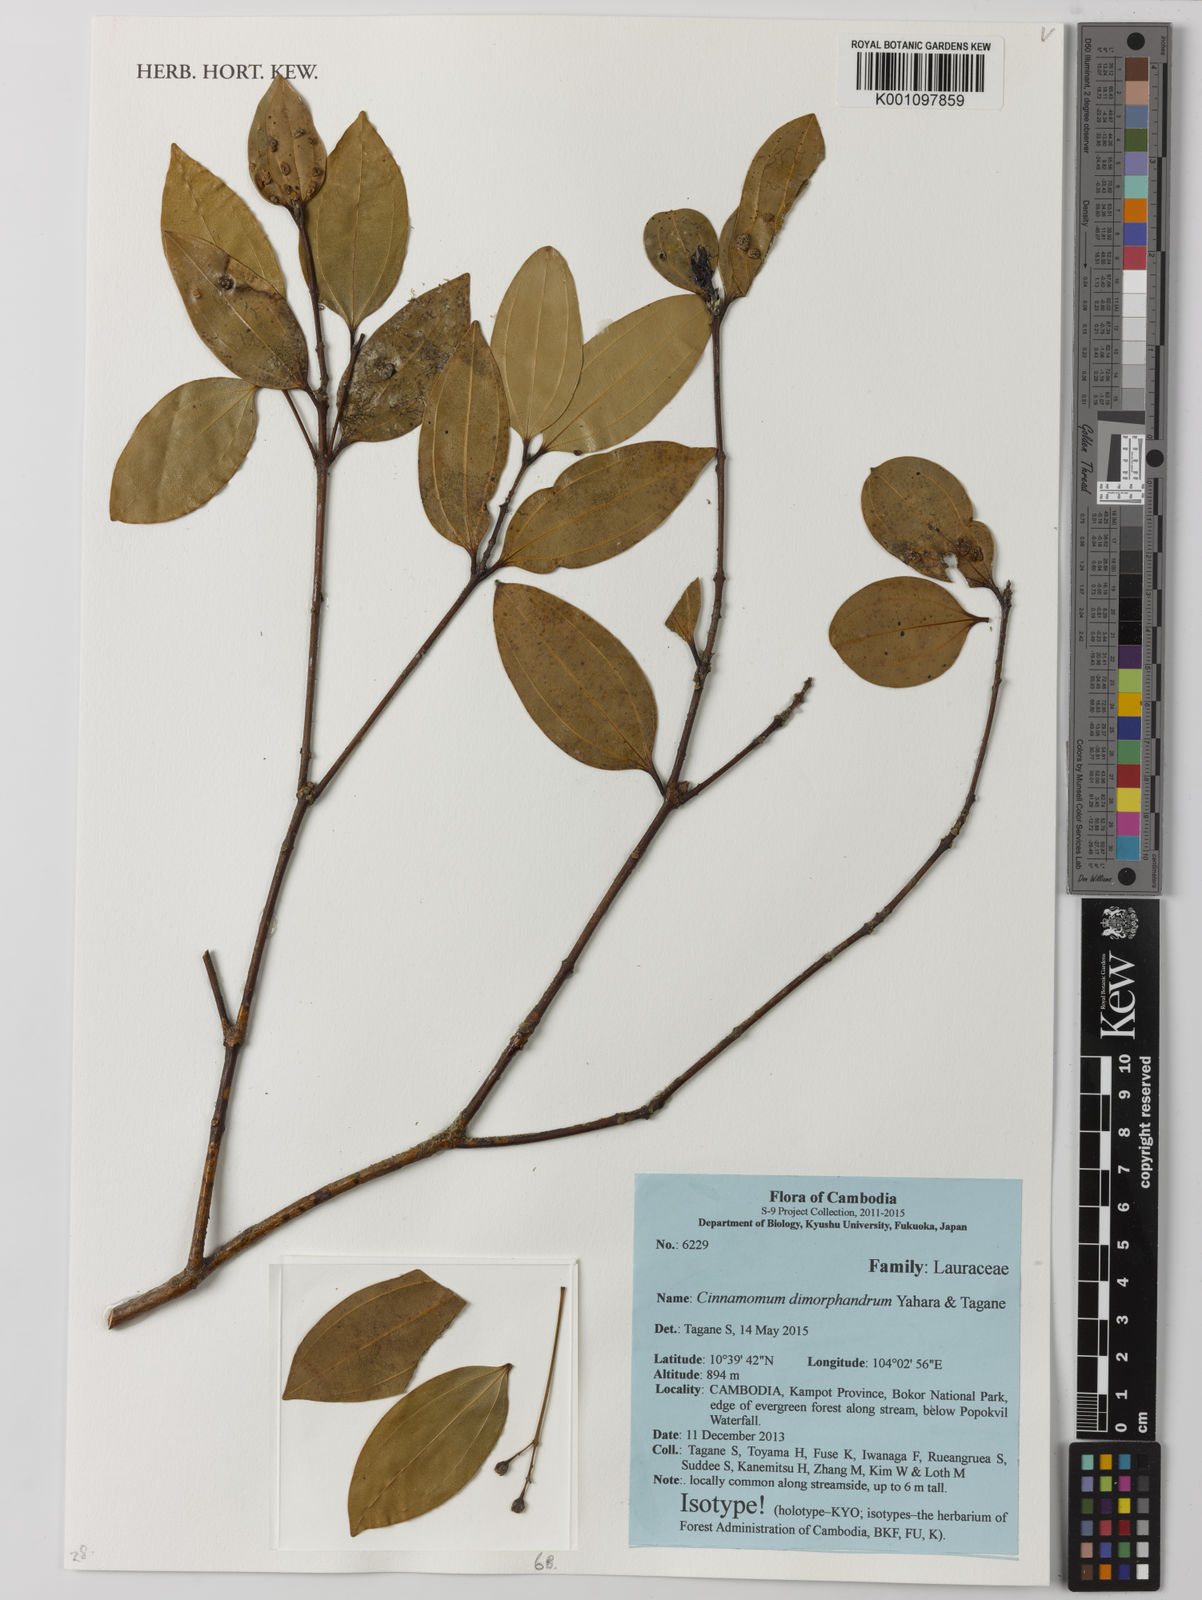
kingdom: Plantae
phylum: Tracheophyta
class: Magnoliopsida
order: Laurales
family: Lauraceae
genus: Cinnamomum
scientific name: Cinnamomum dimorphandrum
